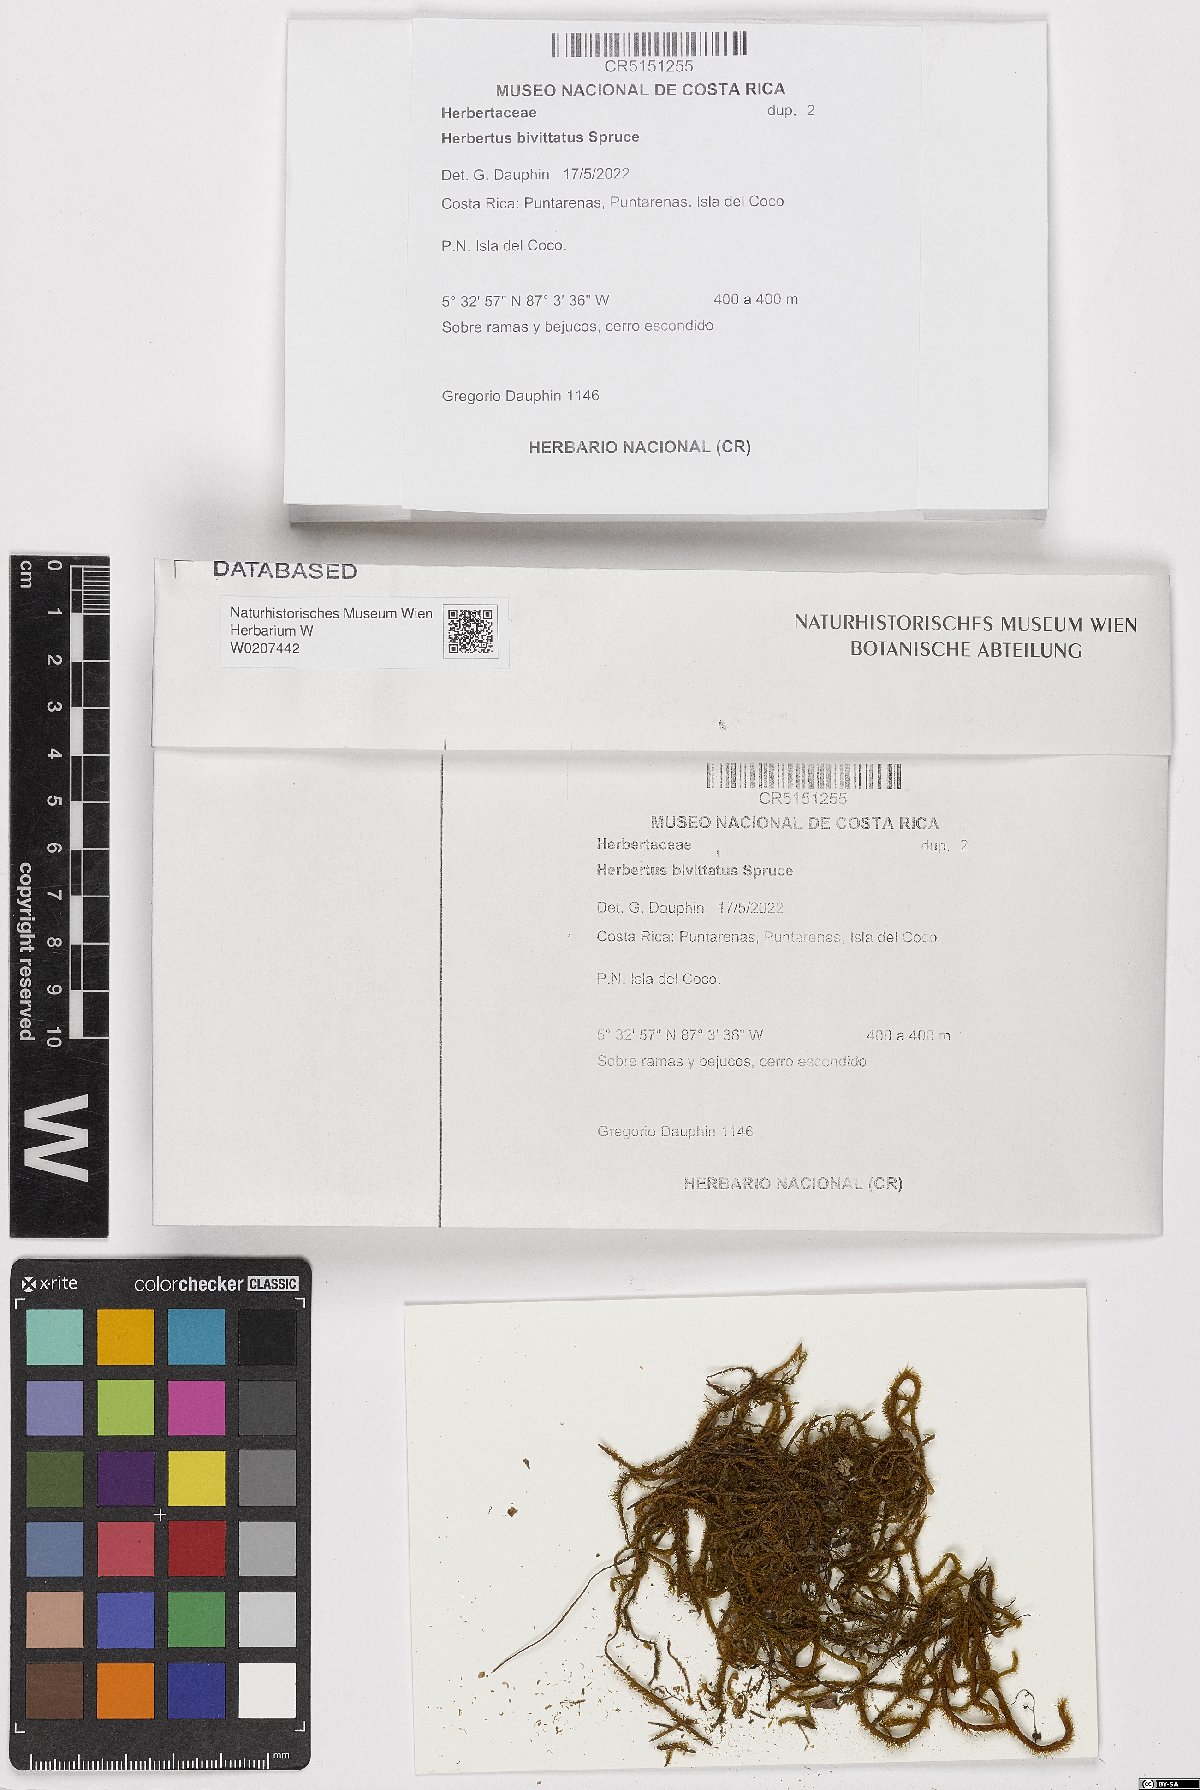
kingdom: Plantae
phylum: Marchantiophyta
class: Jungermanniopsida
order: Jungermanniales
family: Herbertaceae
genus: Herbertus
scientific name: Herbertus bivittatus
